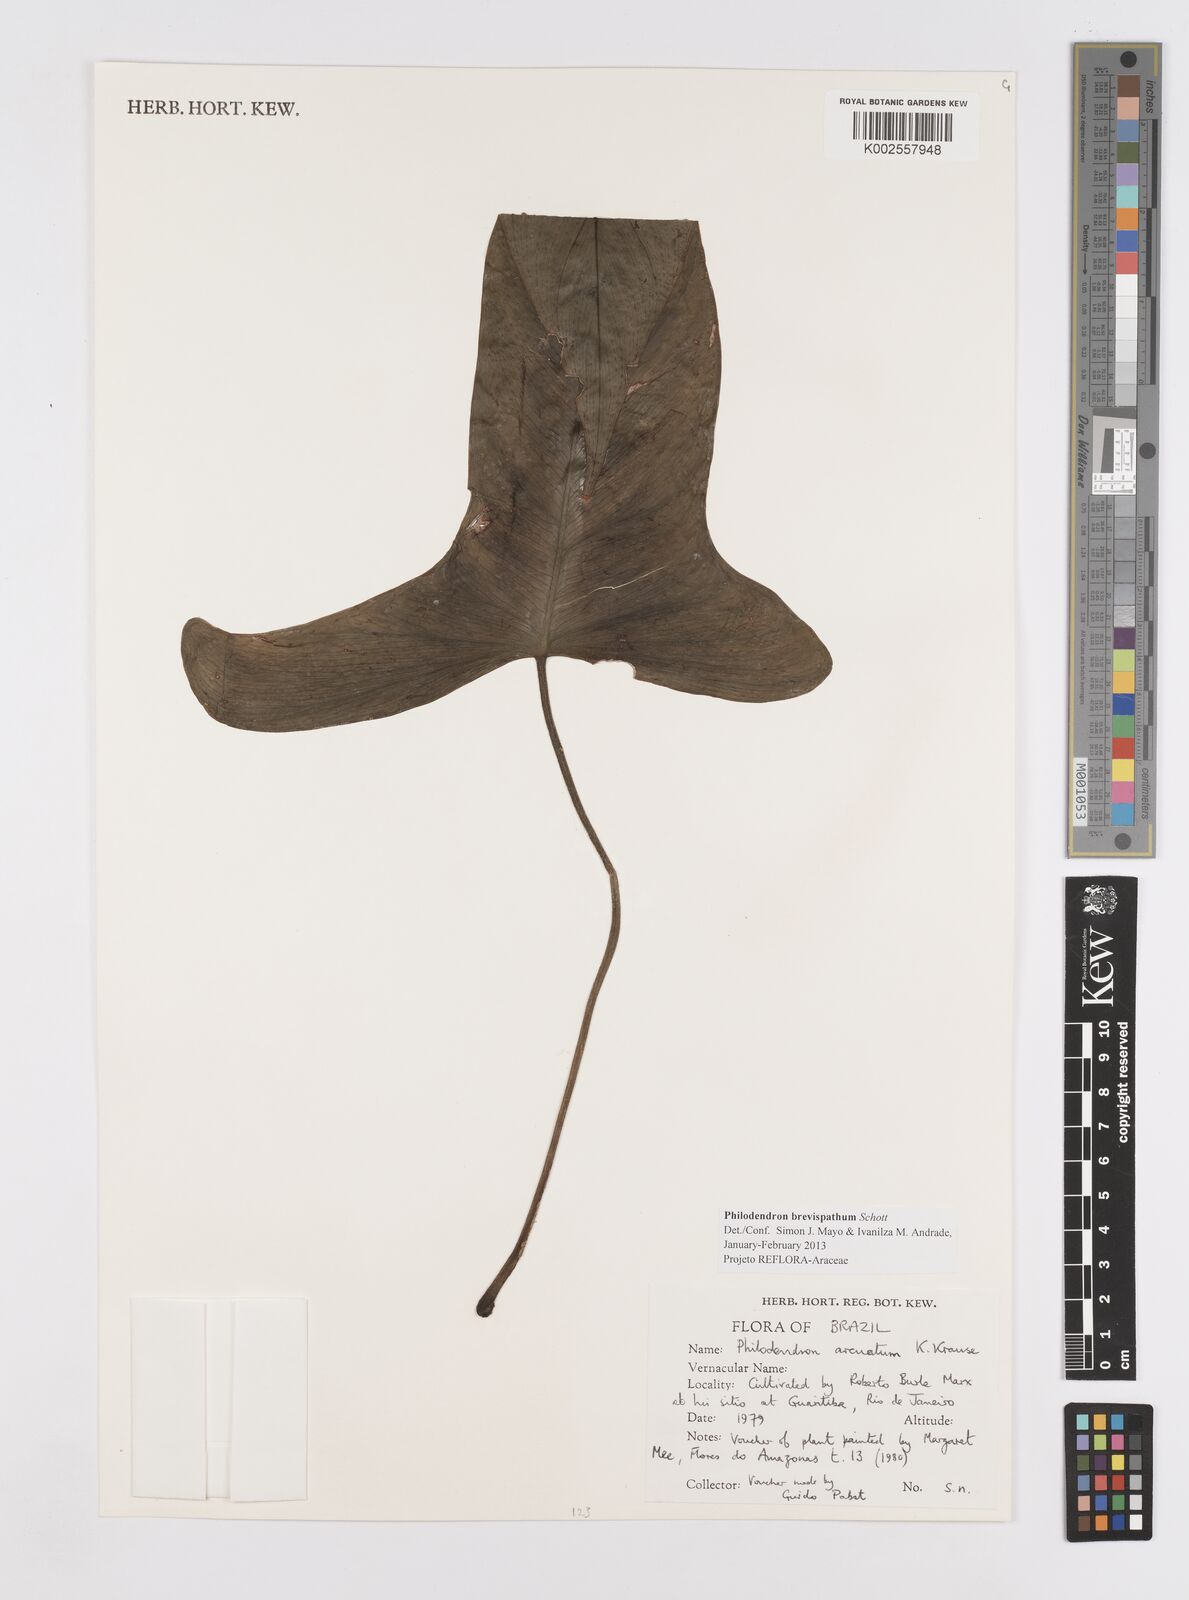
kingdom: Plantae
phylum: Tracheophyta
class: Liliopsida
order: Alismatales
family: Araceae
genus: Philodendron
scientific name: Philodendron brevispathum
